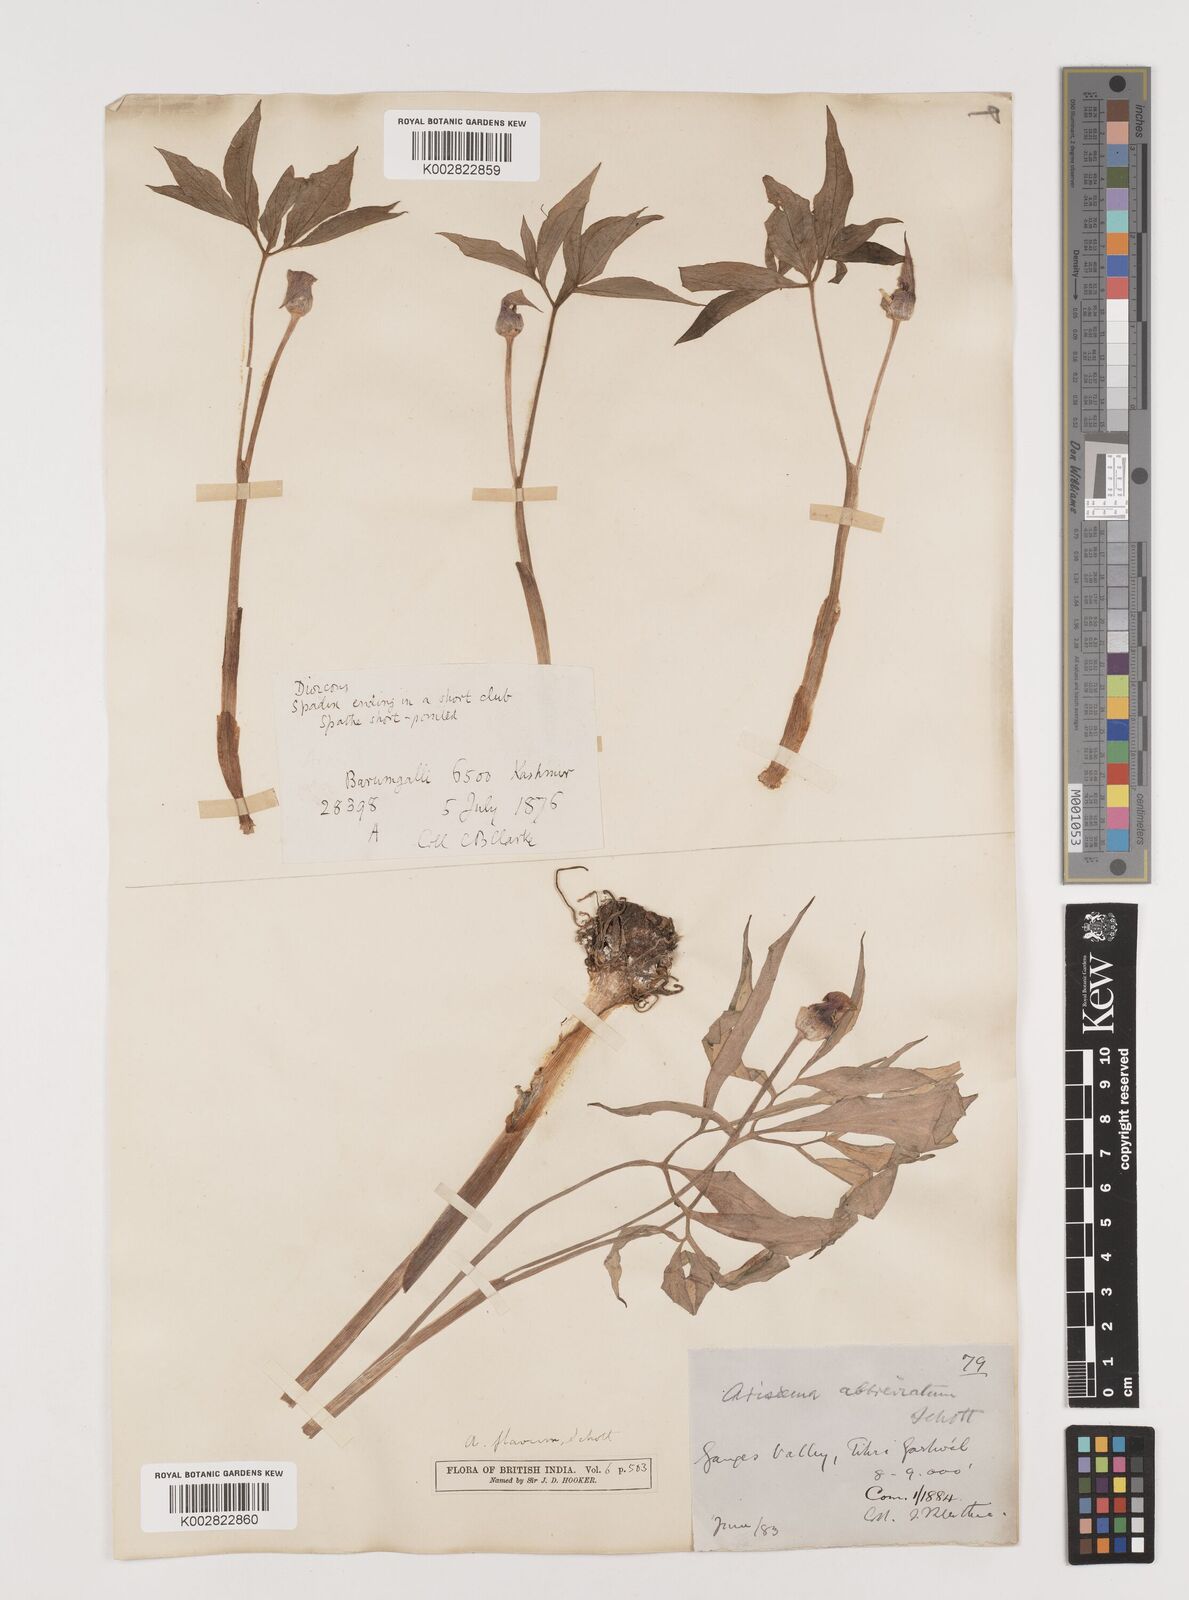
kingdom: Plantae
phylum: Tracheophyta
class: Liliopsida
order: Alismatales
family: Araceae
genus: Arisaema
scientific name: Arisaema flavum
